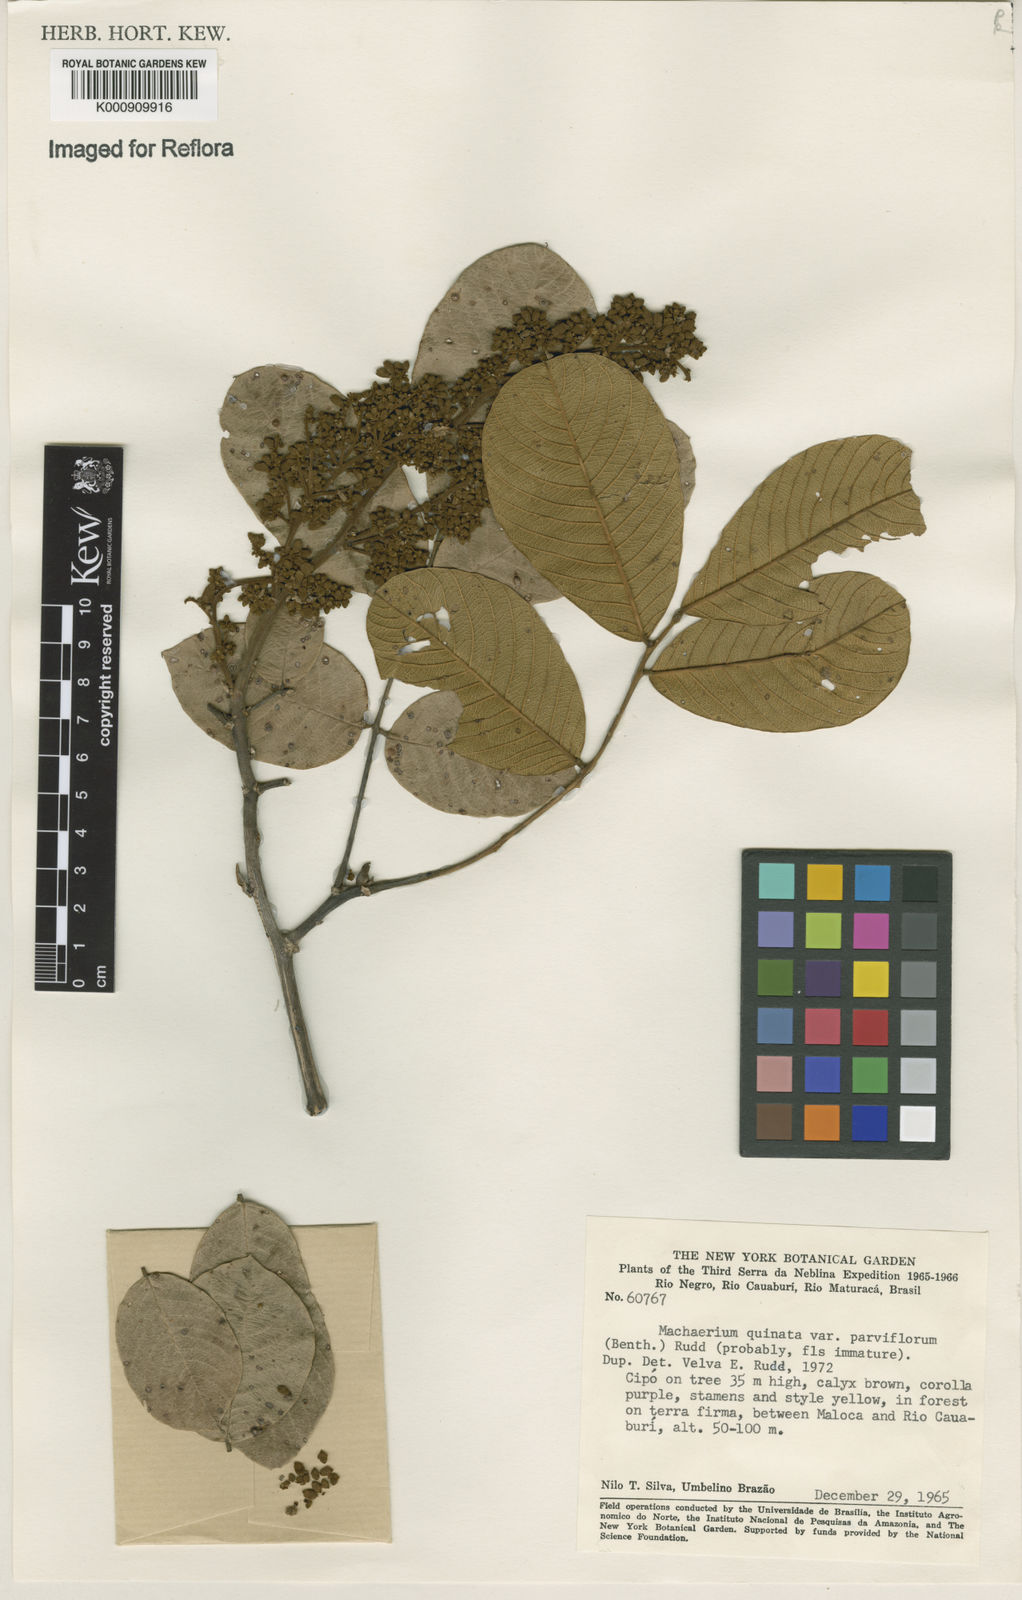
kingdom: Plantae
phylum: Tracheophyta
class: Magnoliopsida
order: Fabales
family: Fabaceae
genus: Machaerium
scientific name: Machaerium quinata
